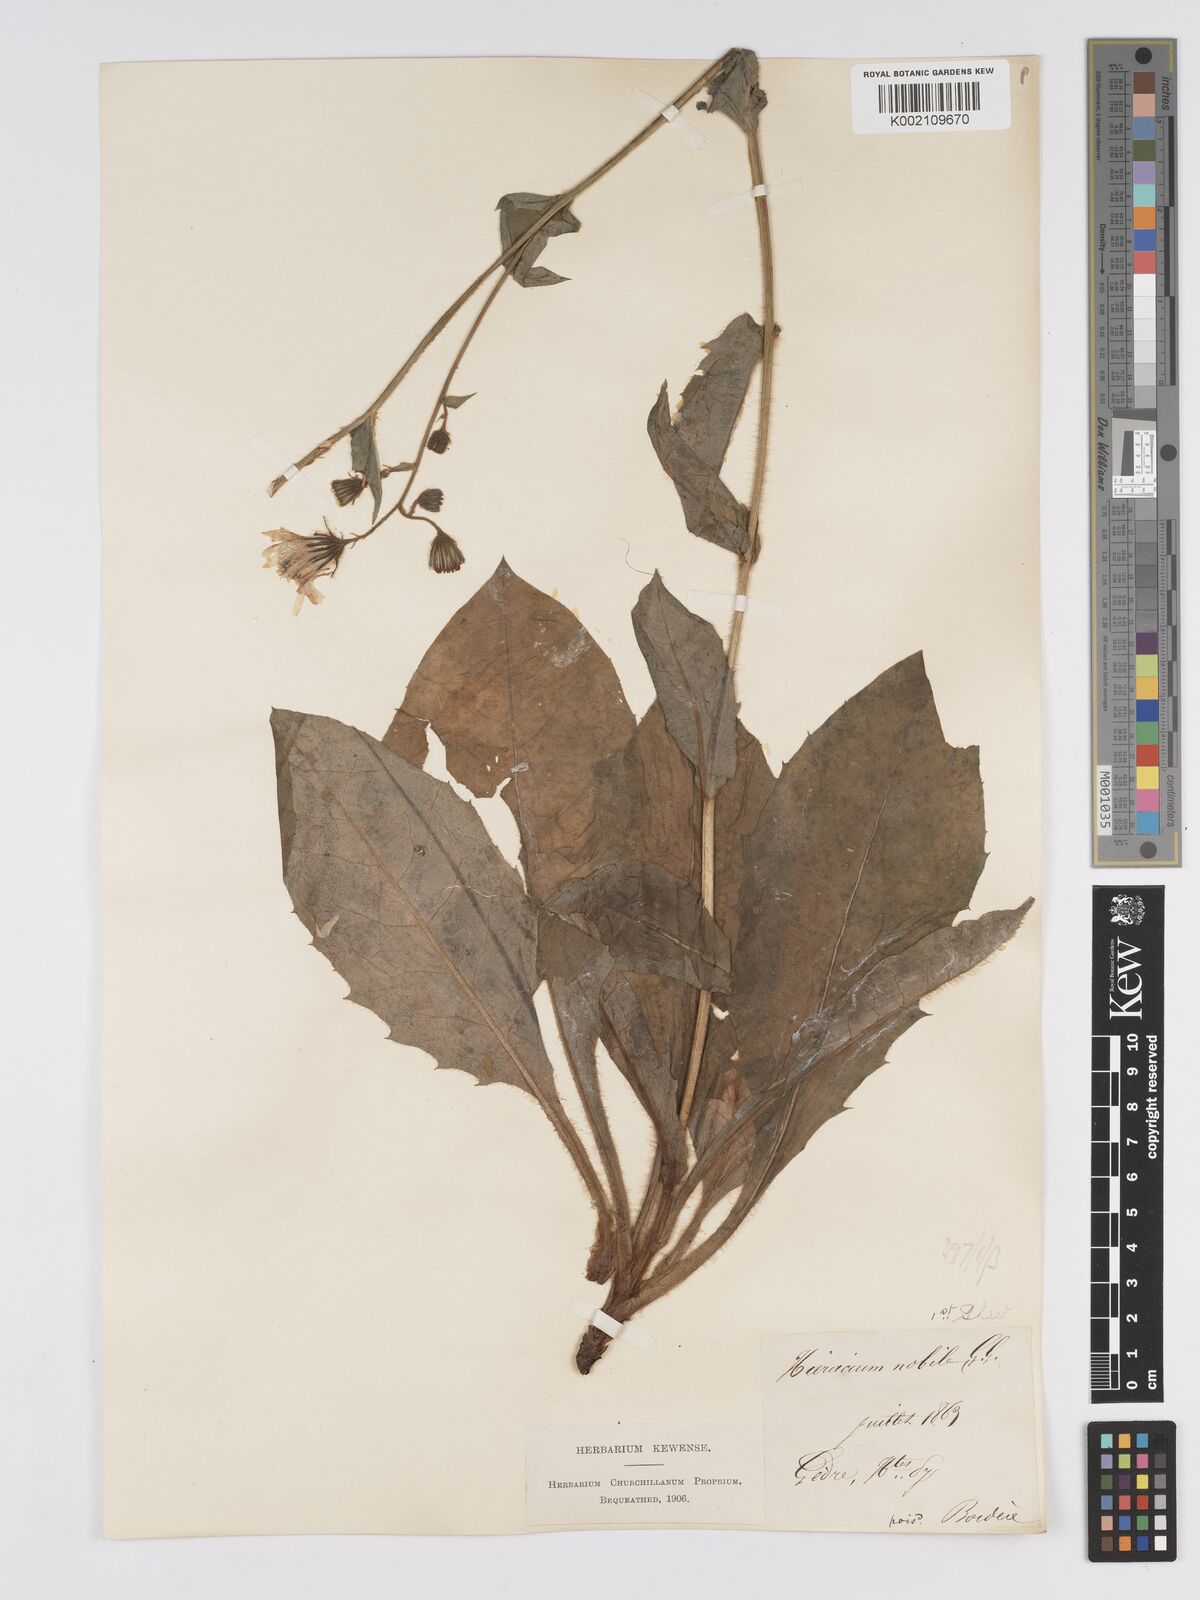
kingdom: Plantae
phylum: Tracheophyta
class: Magnoliopsida
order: Asterales
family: Asteraceae
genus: Hieracium
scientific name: Hieracium nobile
